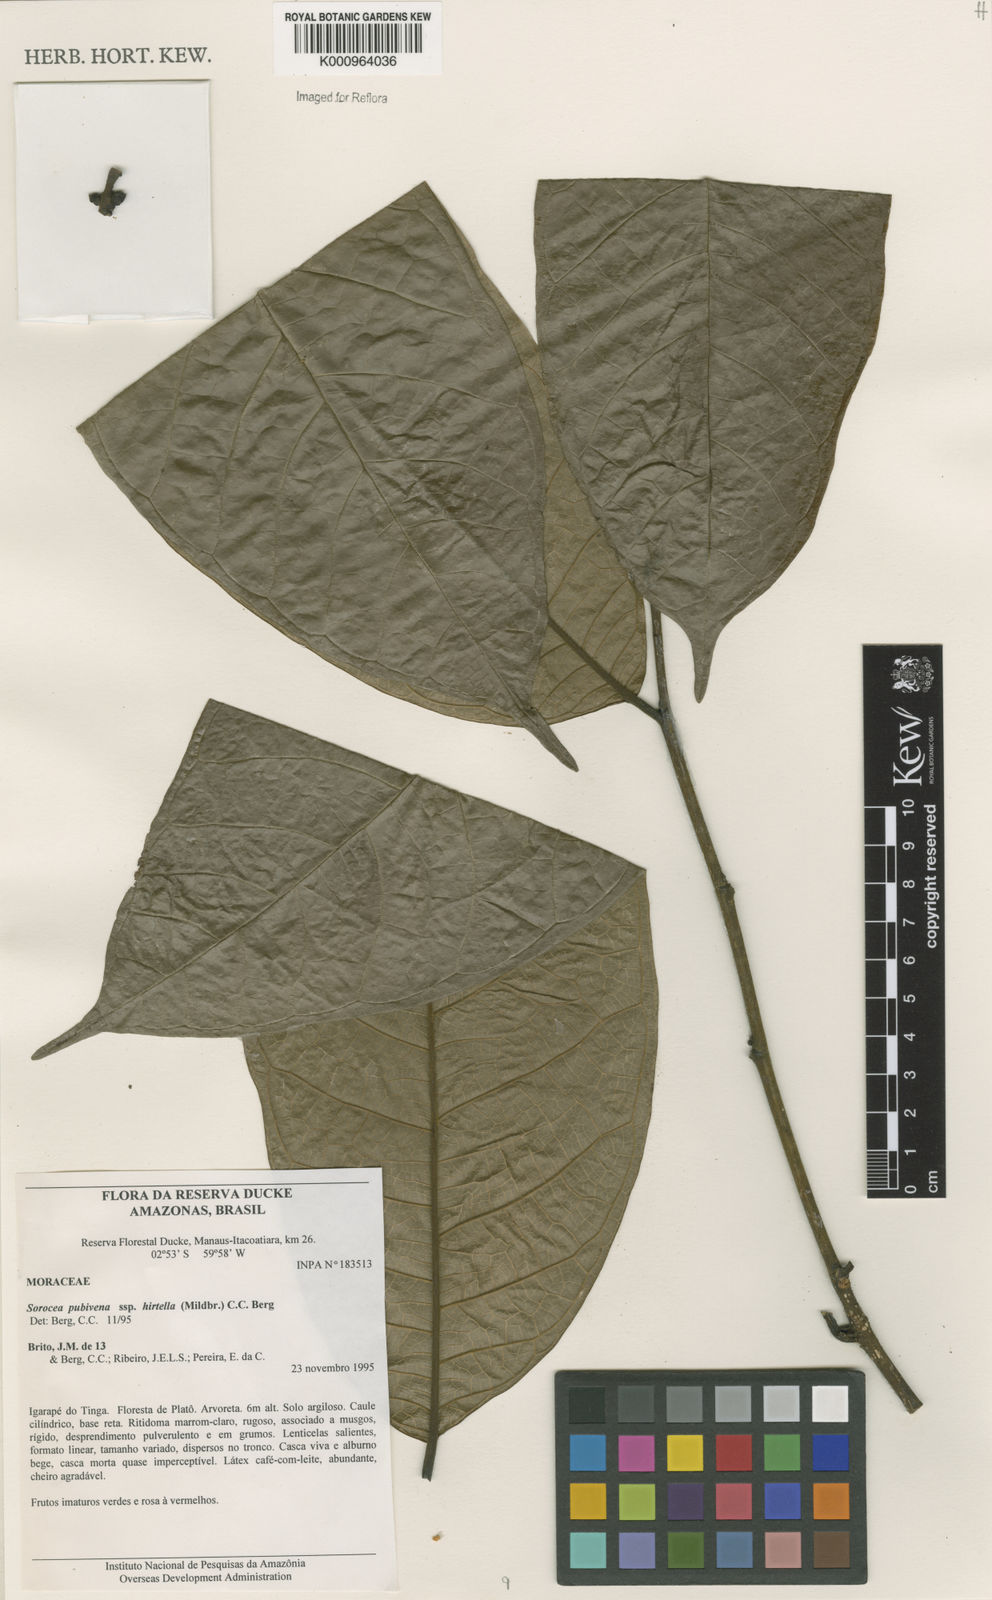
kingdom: Plantae
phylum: Tracheophyta
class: Magnoliopsida
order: Rosales
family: Moraceae
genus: Sorocea
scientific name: Sorocea pubivena
